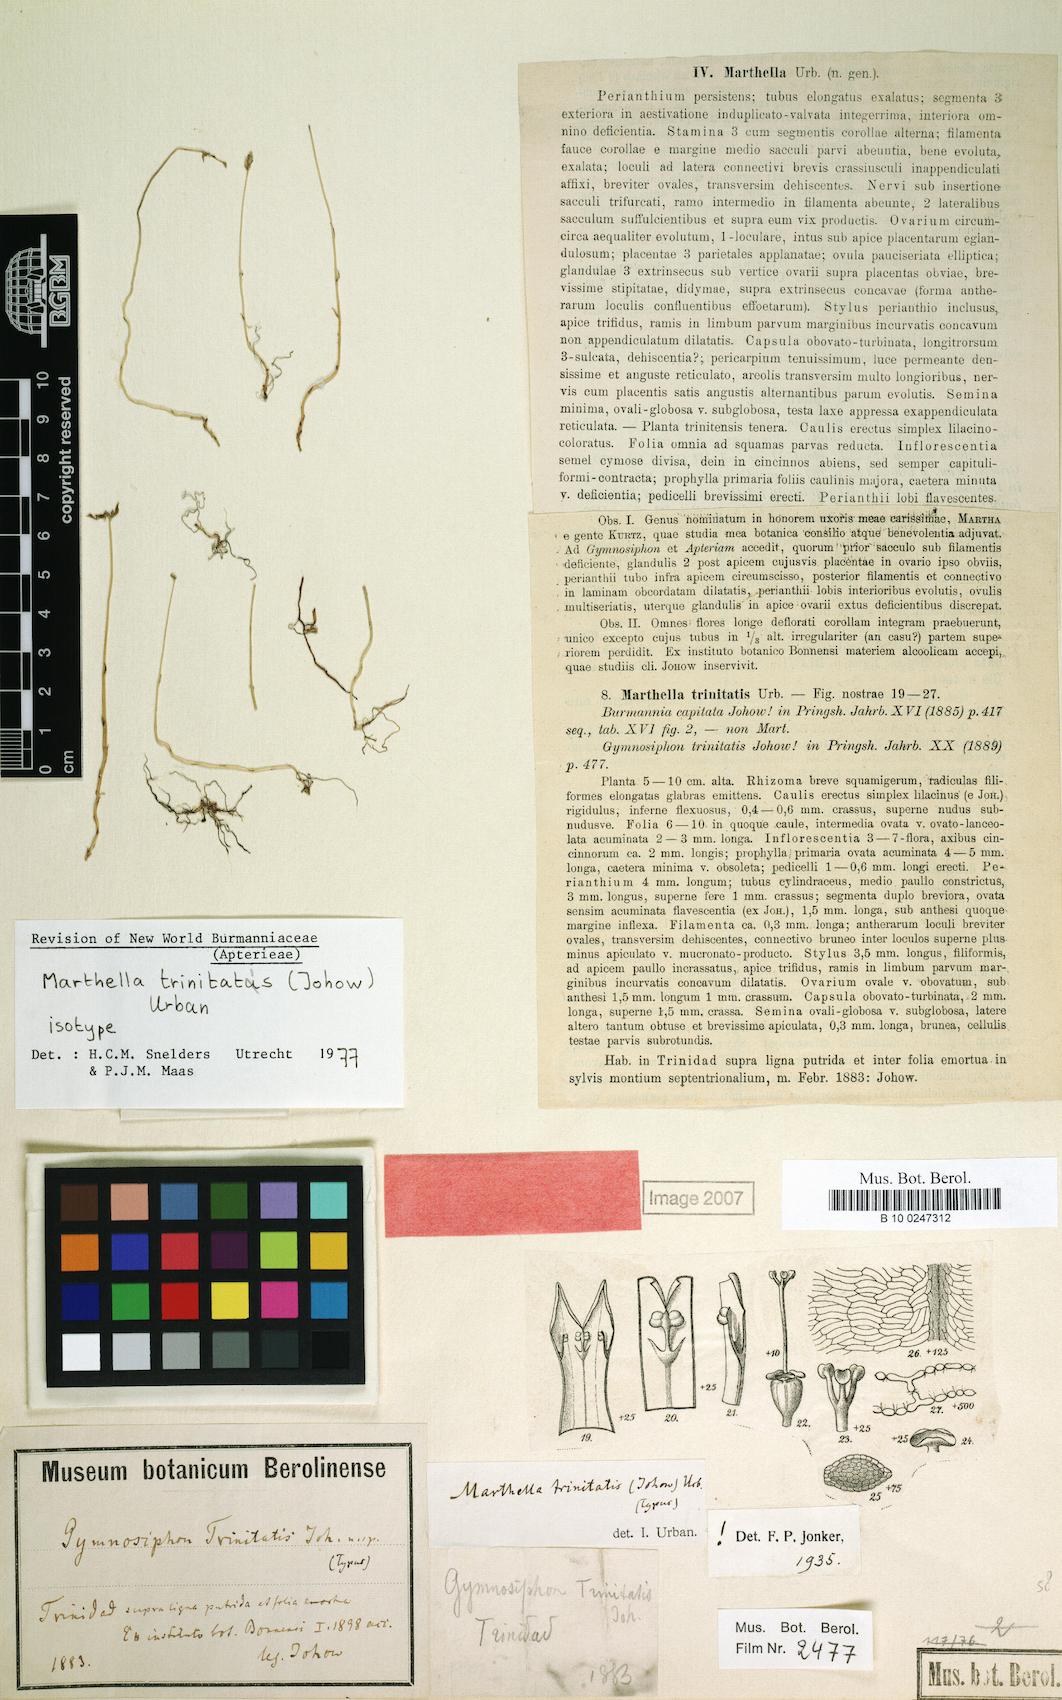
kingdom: Plantae
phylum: Tracheophyta
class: Liliopsida
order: Dioscoreales
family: Burmanniaceae
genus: Marthella
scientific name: Marthella trinitatis
